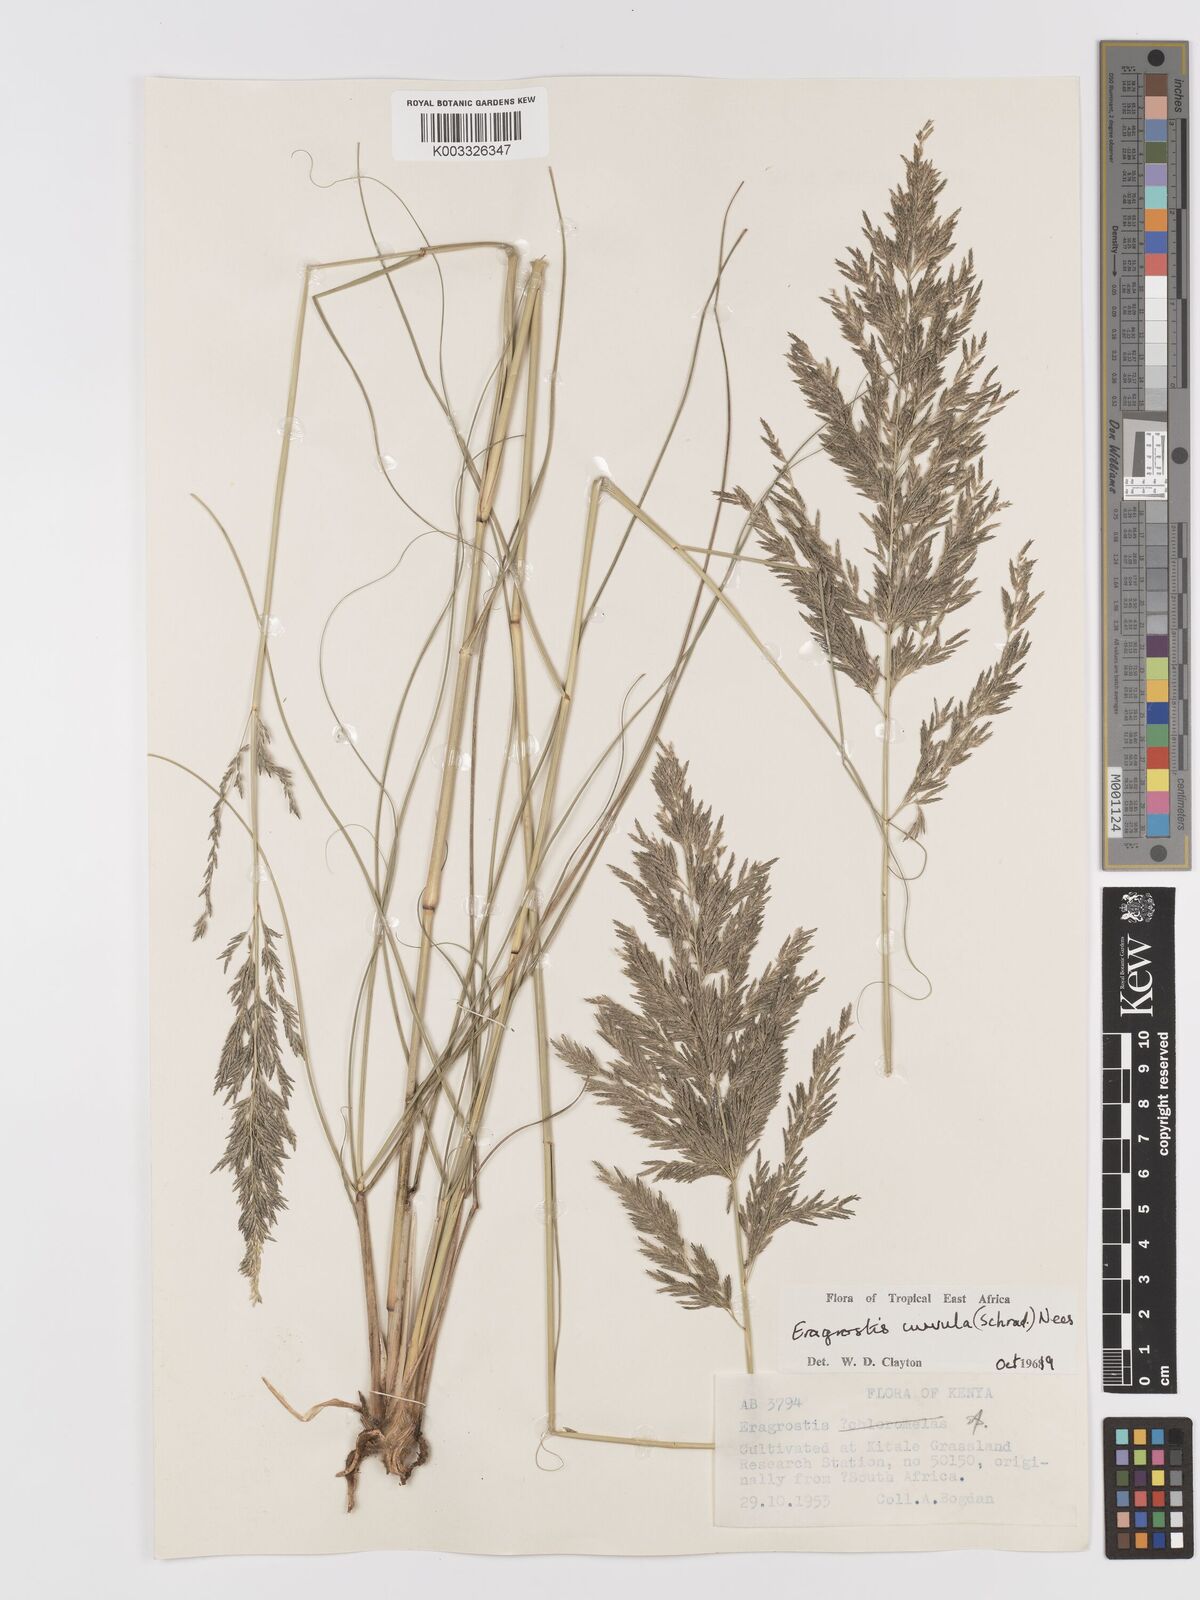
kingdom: Plantae
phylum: Tracheophyta
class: Liliopsida
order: Poales
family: Poaceae
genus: Eragrostis
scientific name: Eragrostis curvula
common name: African love-grass
